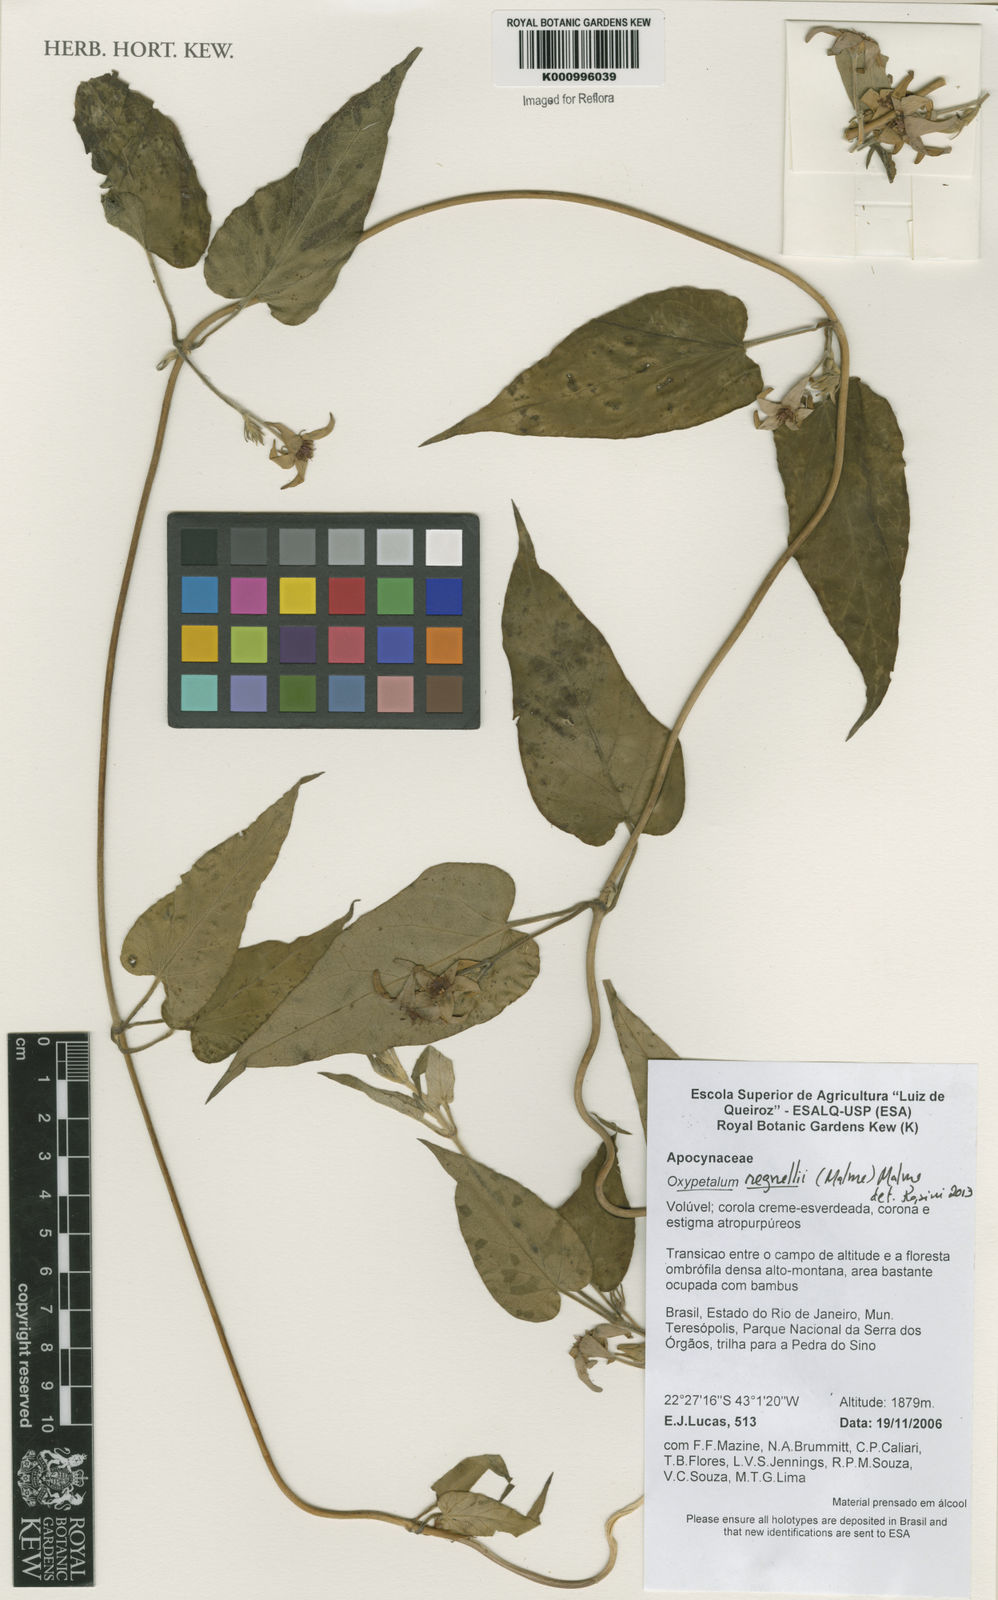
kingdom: Plantae
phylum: Tracheophyta
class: Magnoliopsida
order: Gentianales
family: Apocynaceae
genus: Oxypetalum
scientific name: Oxypetalum regnellii
